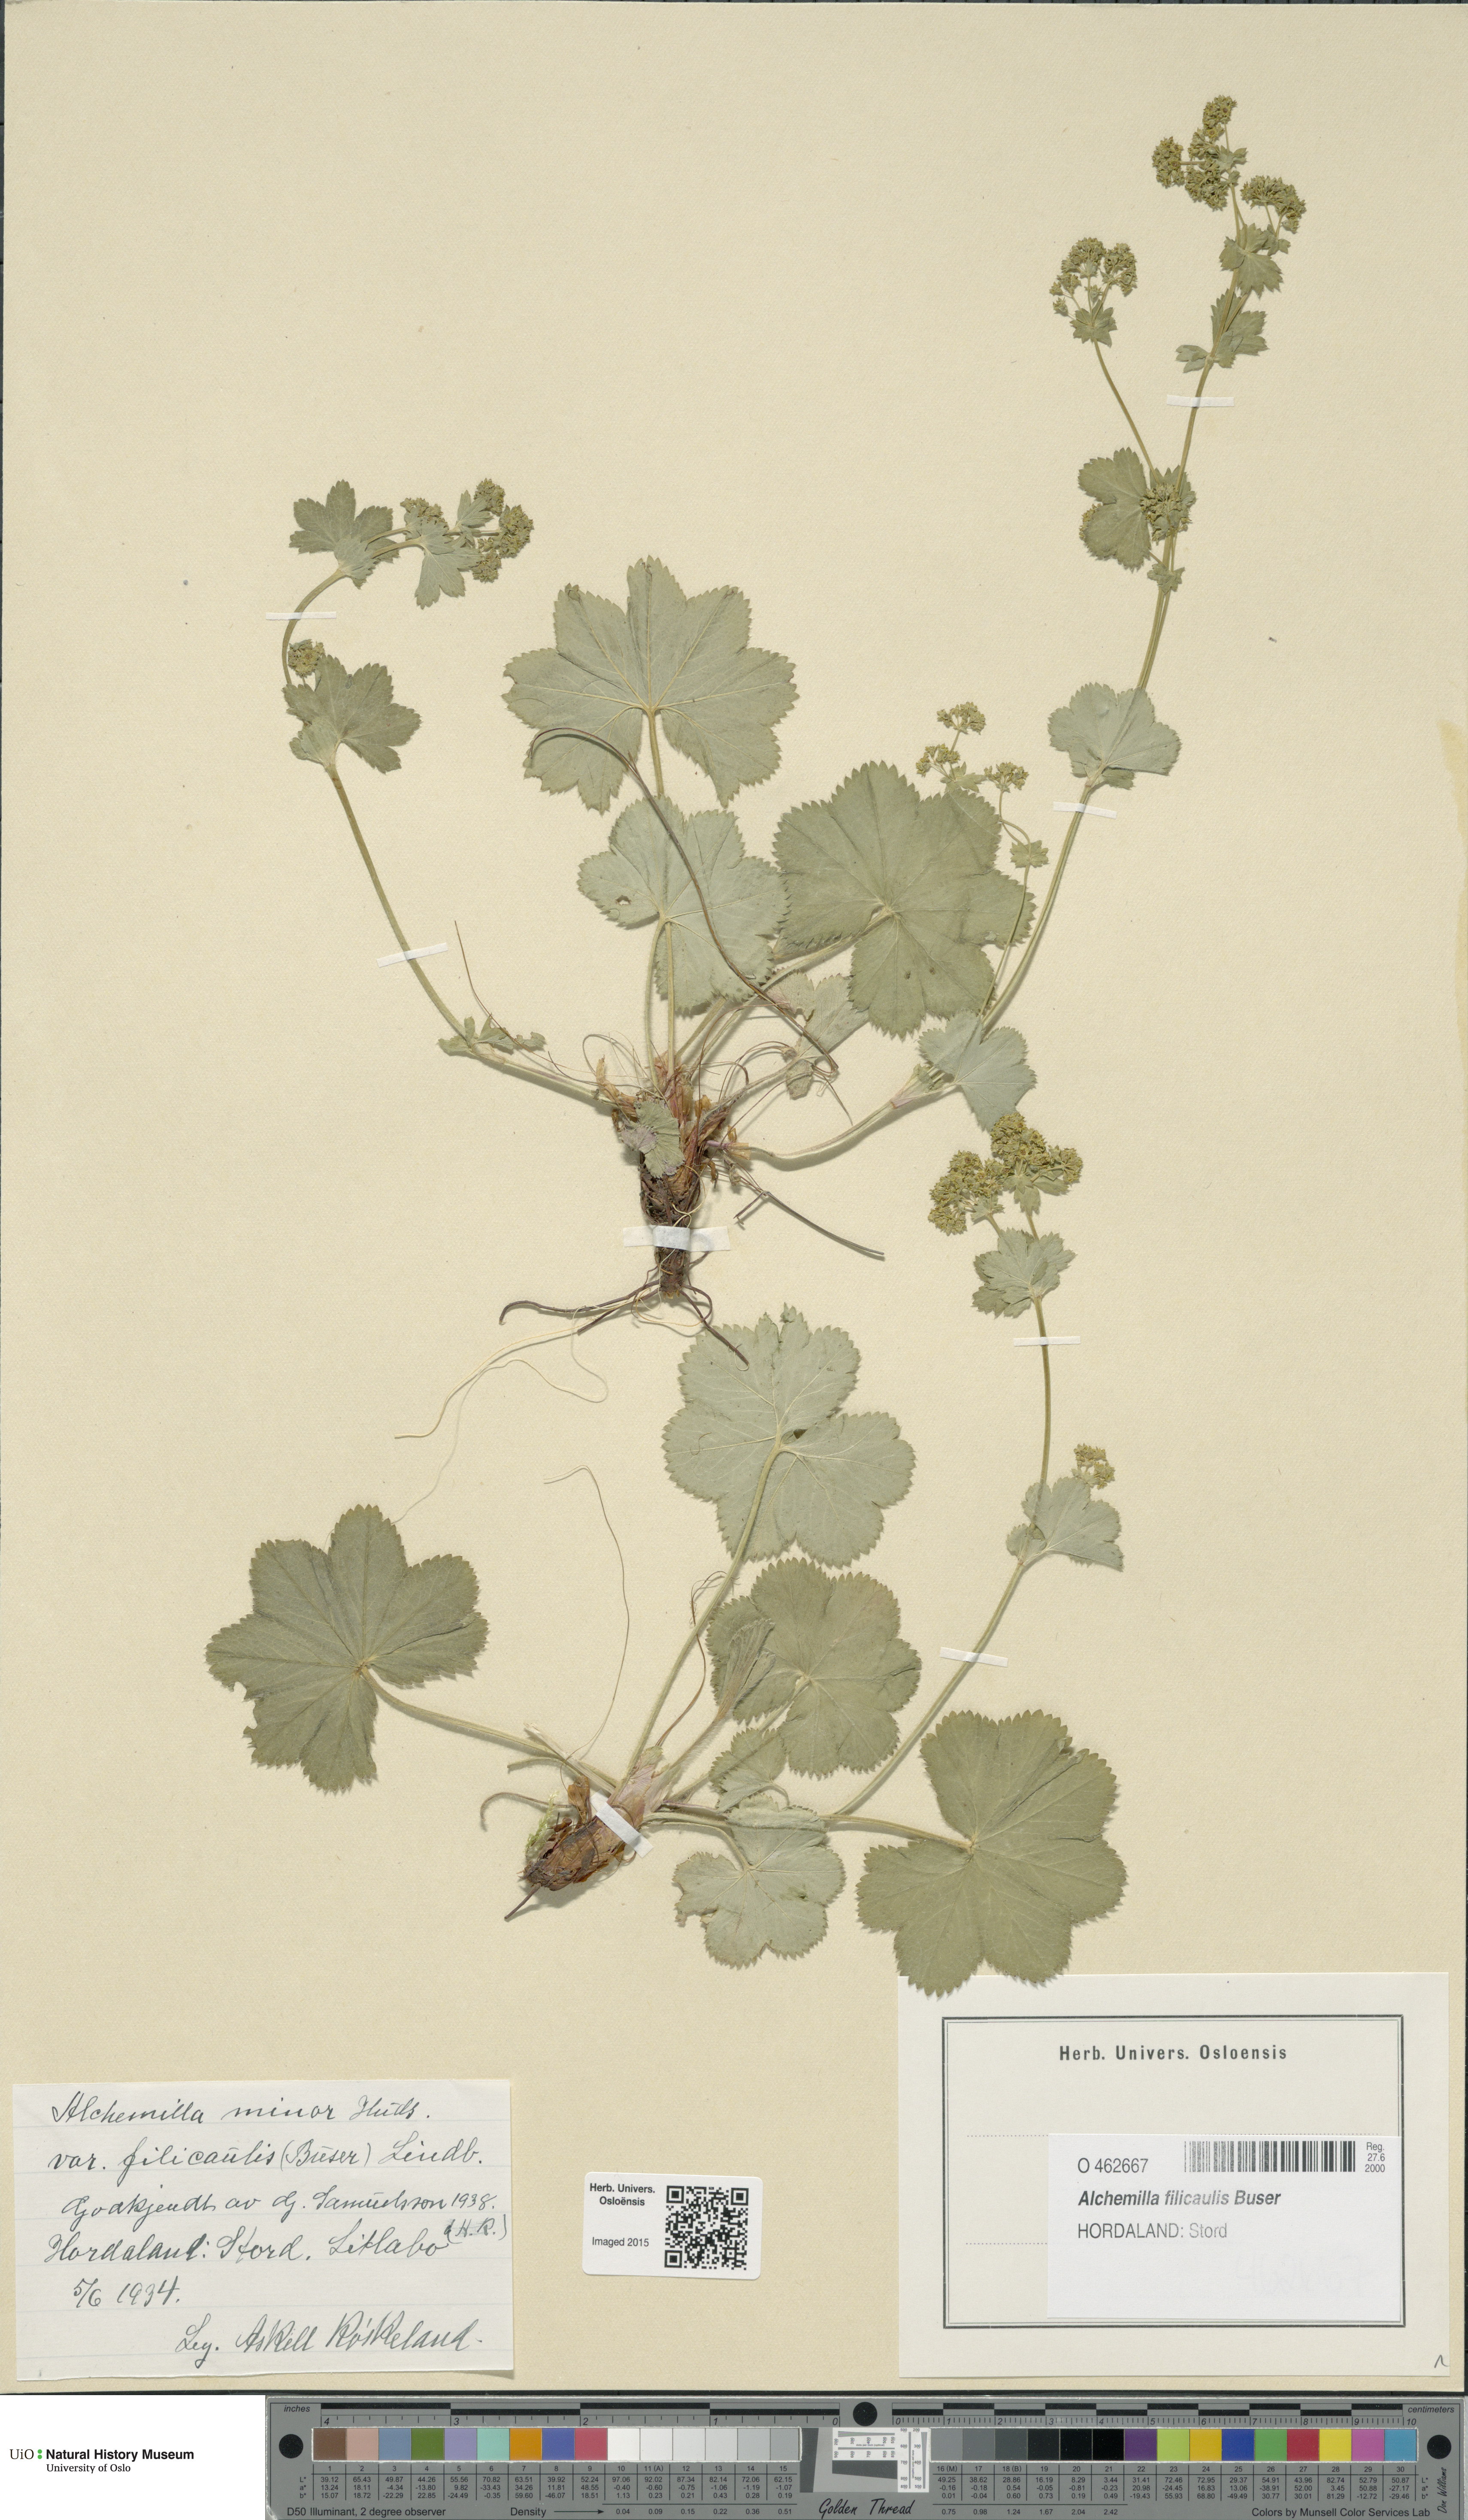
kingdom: Plantae
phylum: Tracheophyta
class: Magnoliopsida
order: Rosales
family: Rosaceae
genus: Alchemilla
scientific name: Alchemilla filicaulis
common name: Hairy lady's-mantle
